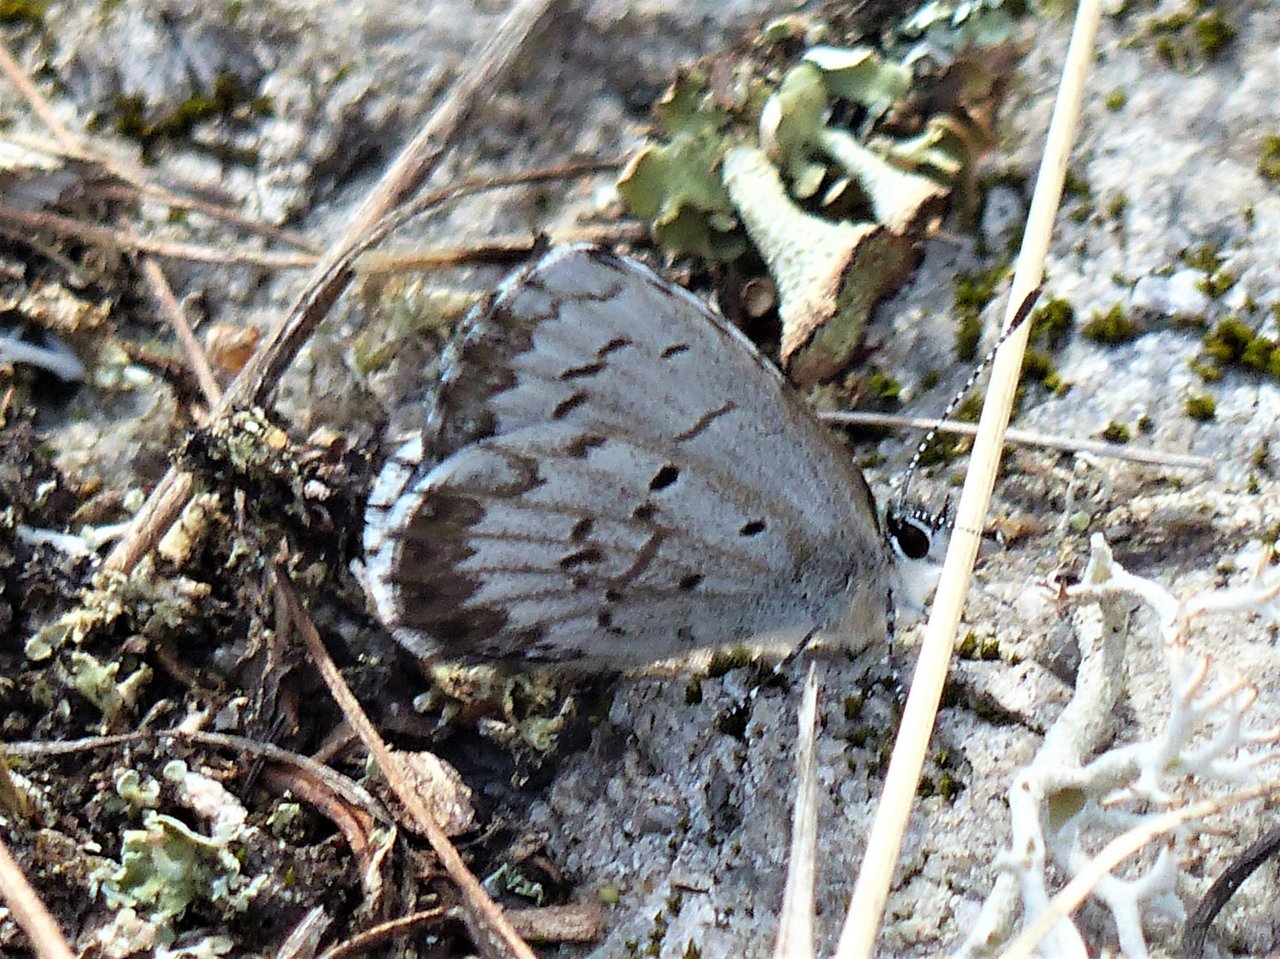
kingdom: Animalia
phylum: Arthropoda
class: Insecta
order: Lepidoptera
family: Lycaenidae
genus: Celastrina
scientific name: Celastrina lucia
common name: Northern Spring Azure
